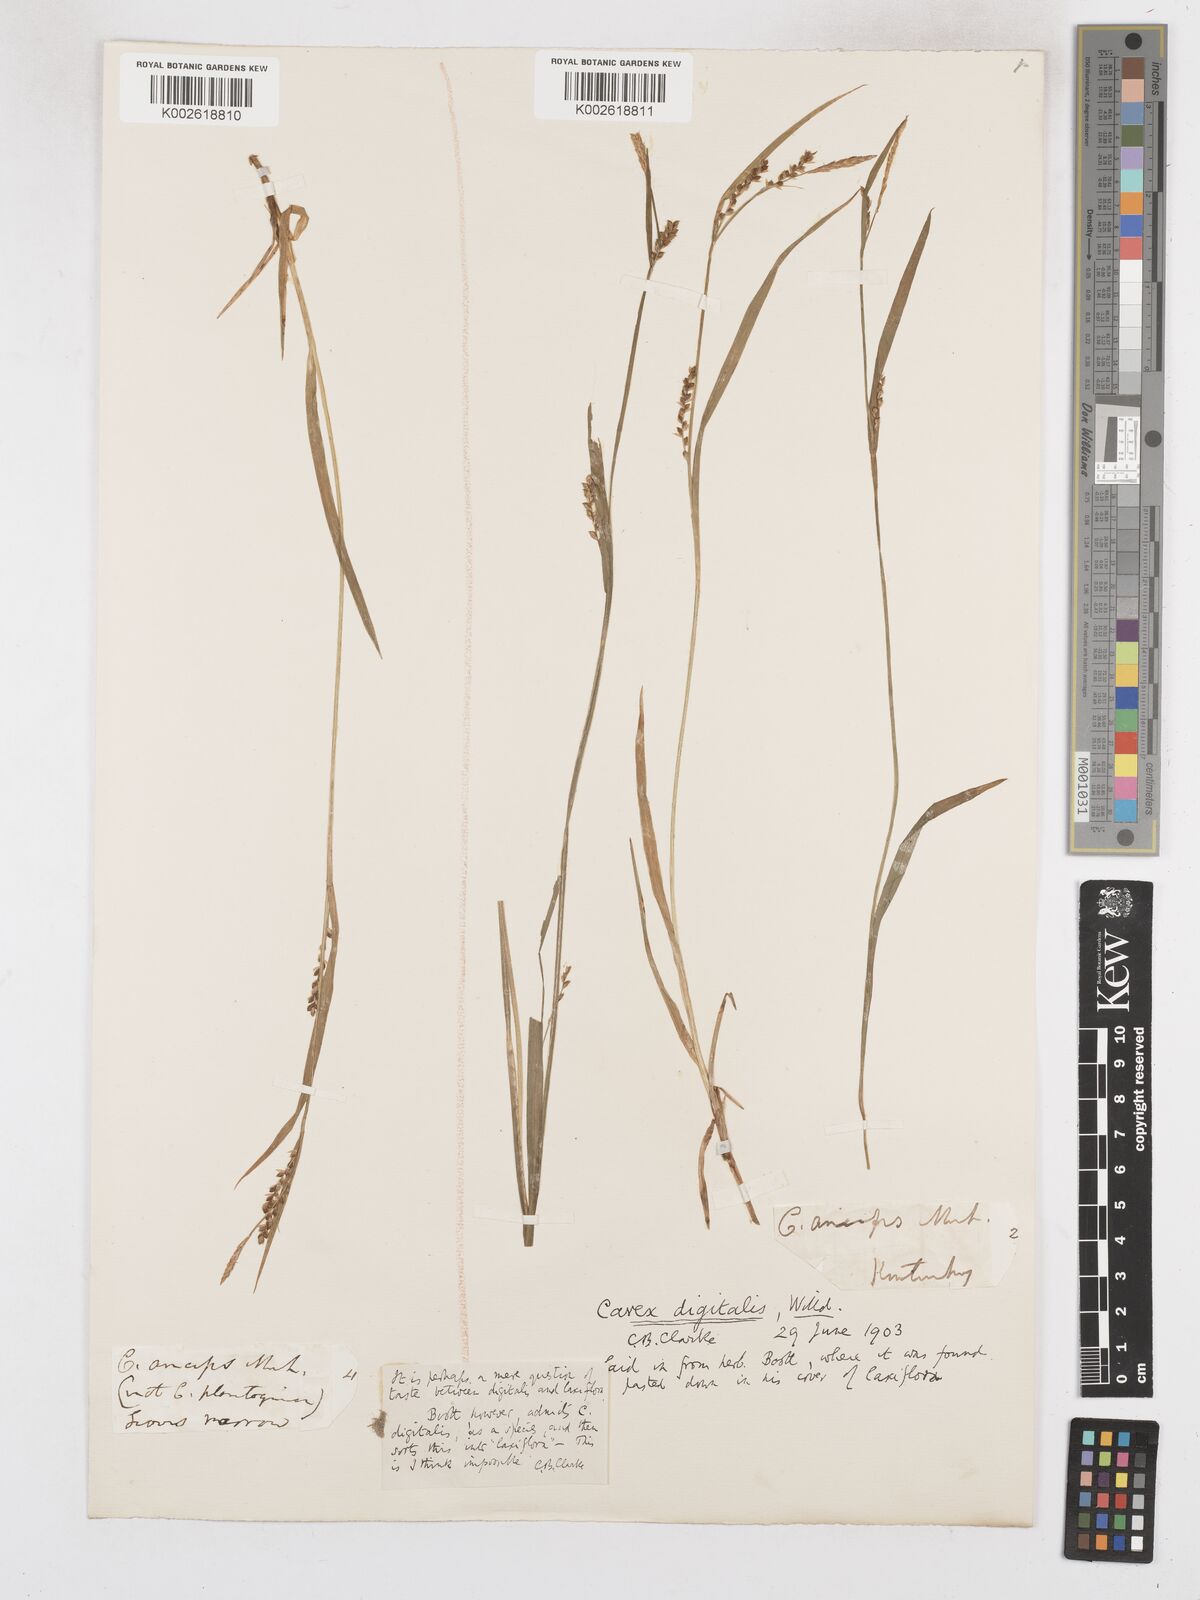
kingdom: Plantae
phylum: Tracheophyta
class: Liliopsida
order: Poales
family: Cyperaceae
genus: Carex
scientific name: Carex digitalis
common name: Slender wood sedge
